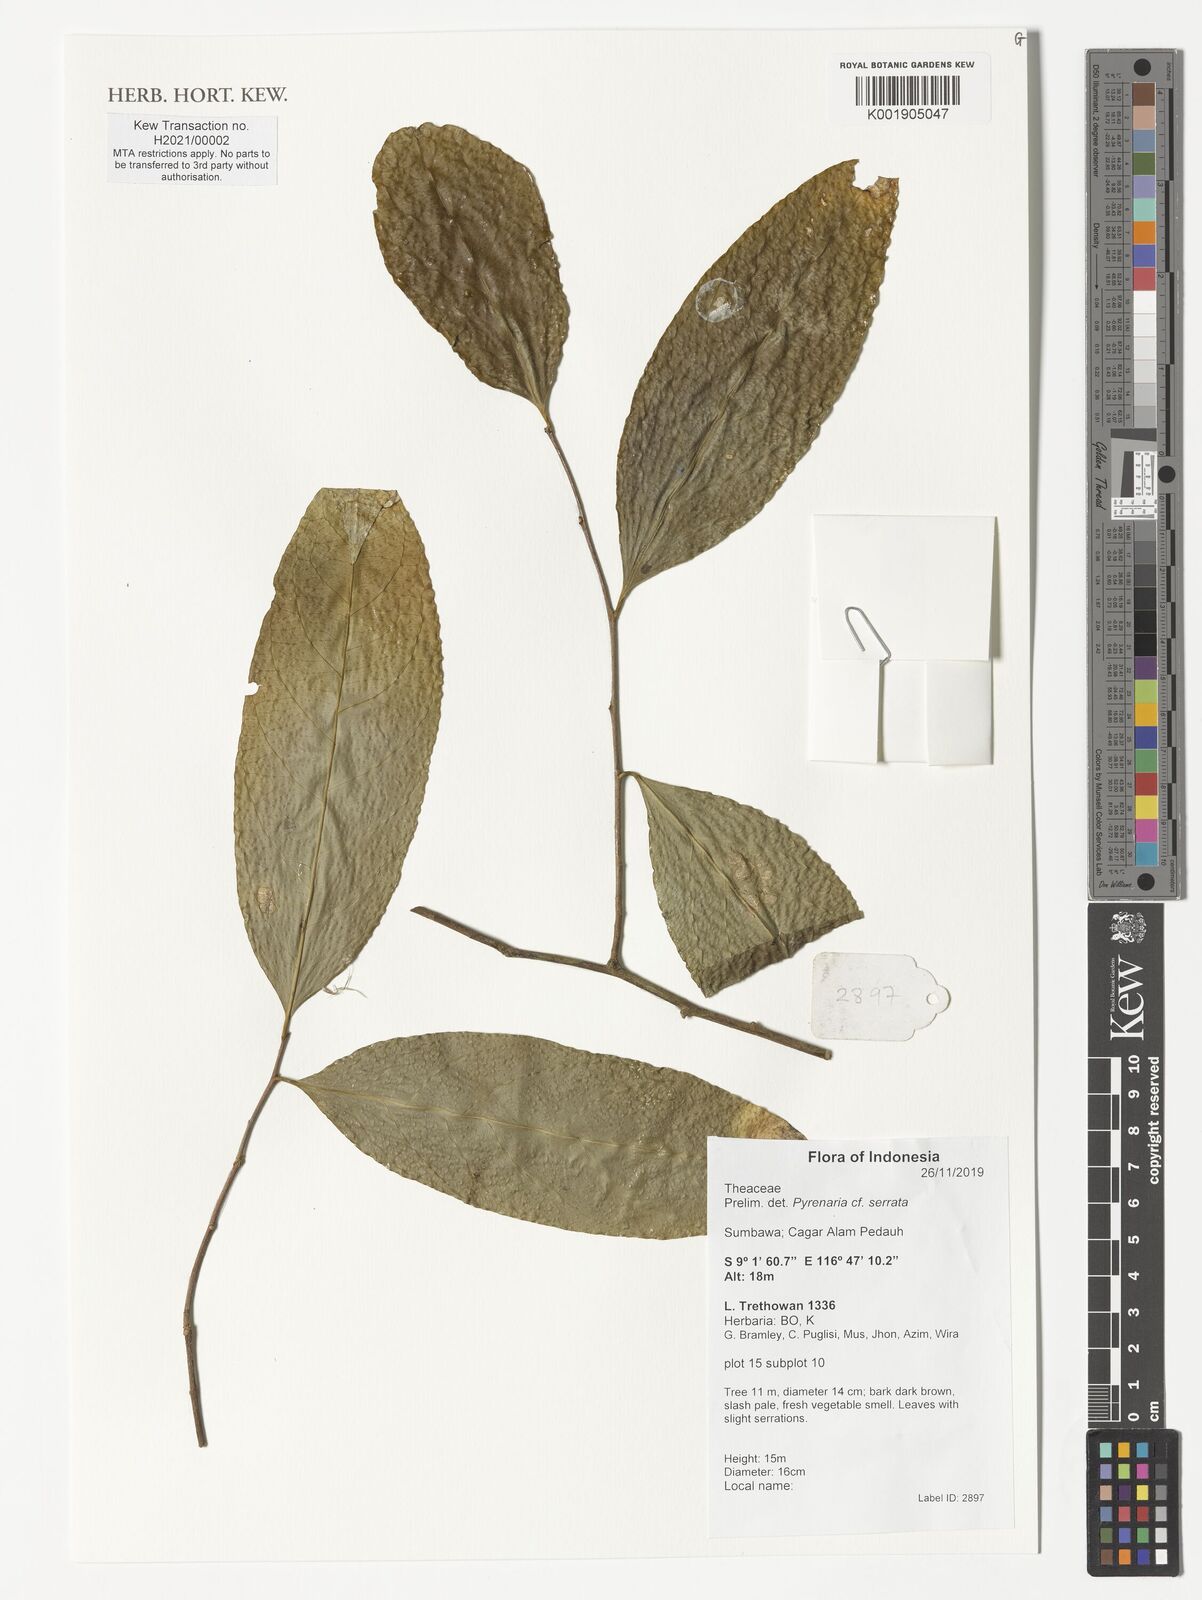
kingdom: Plantae
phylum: Tracheophyta
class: Magnoliopsida
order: Ericales
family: Theaceae
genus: Pyrenaria
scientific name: Pyrenaria serrata
